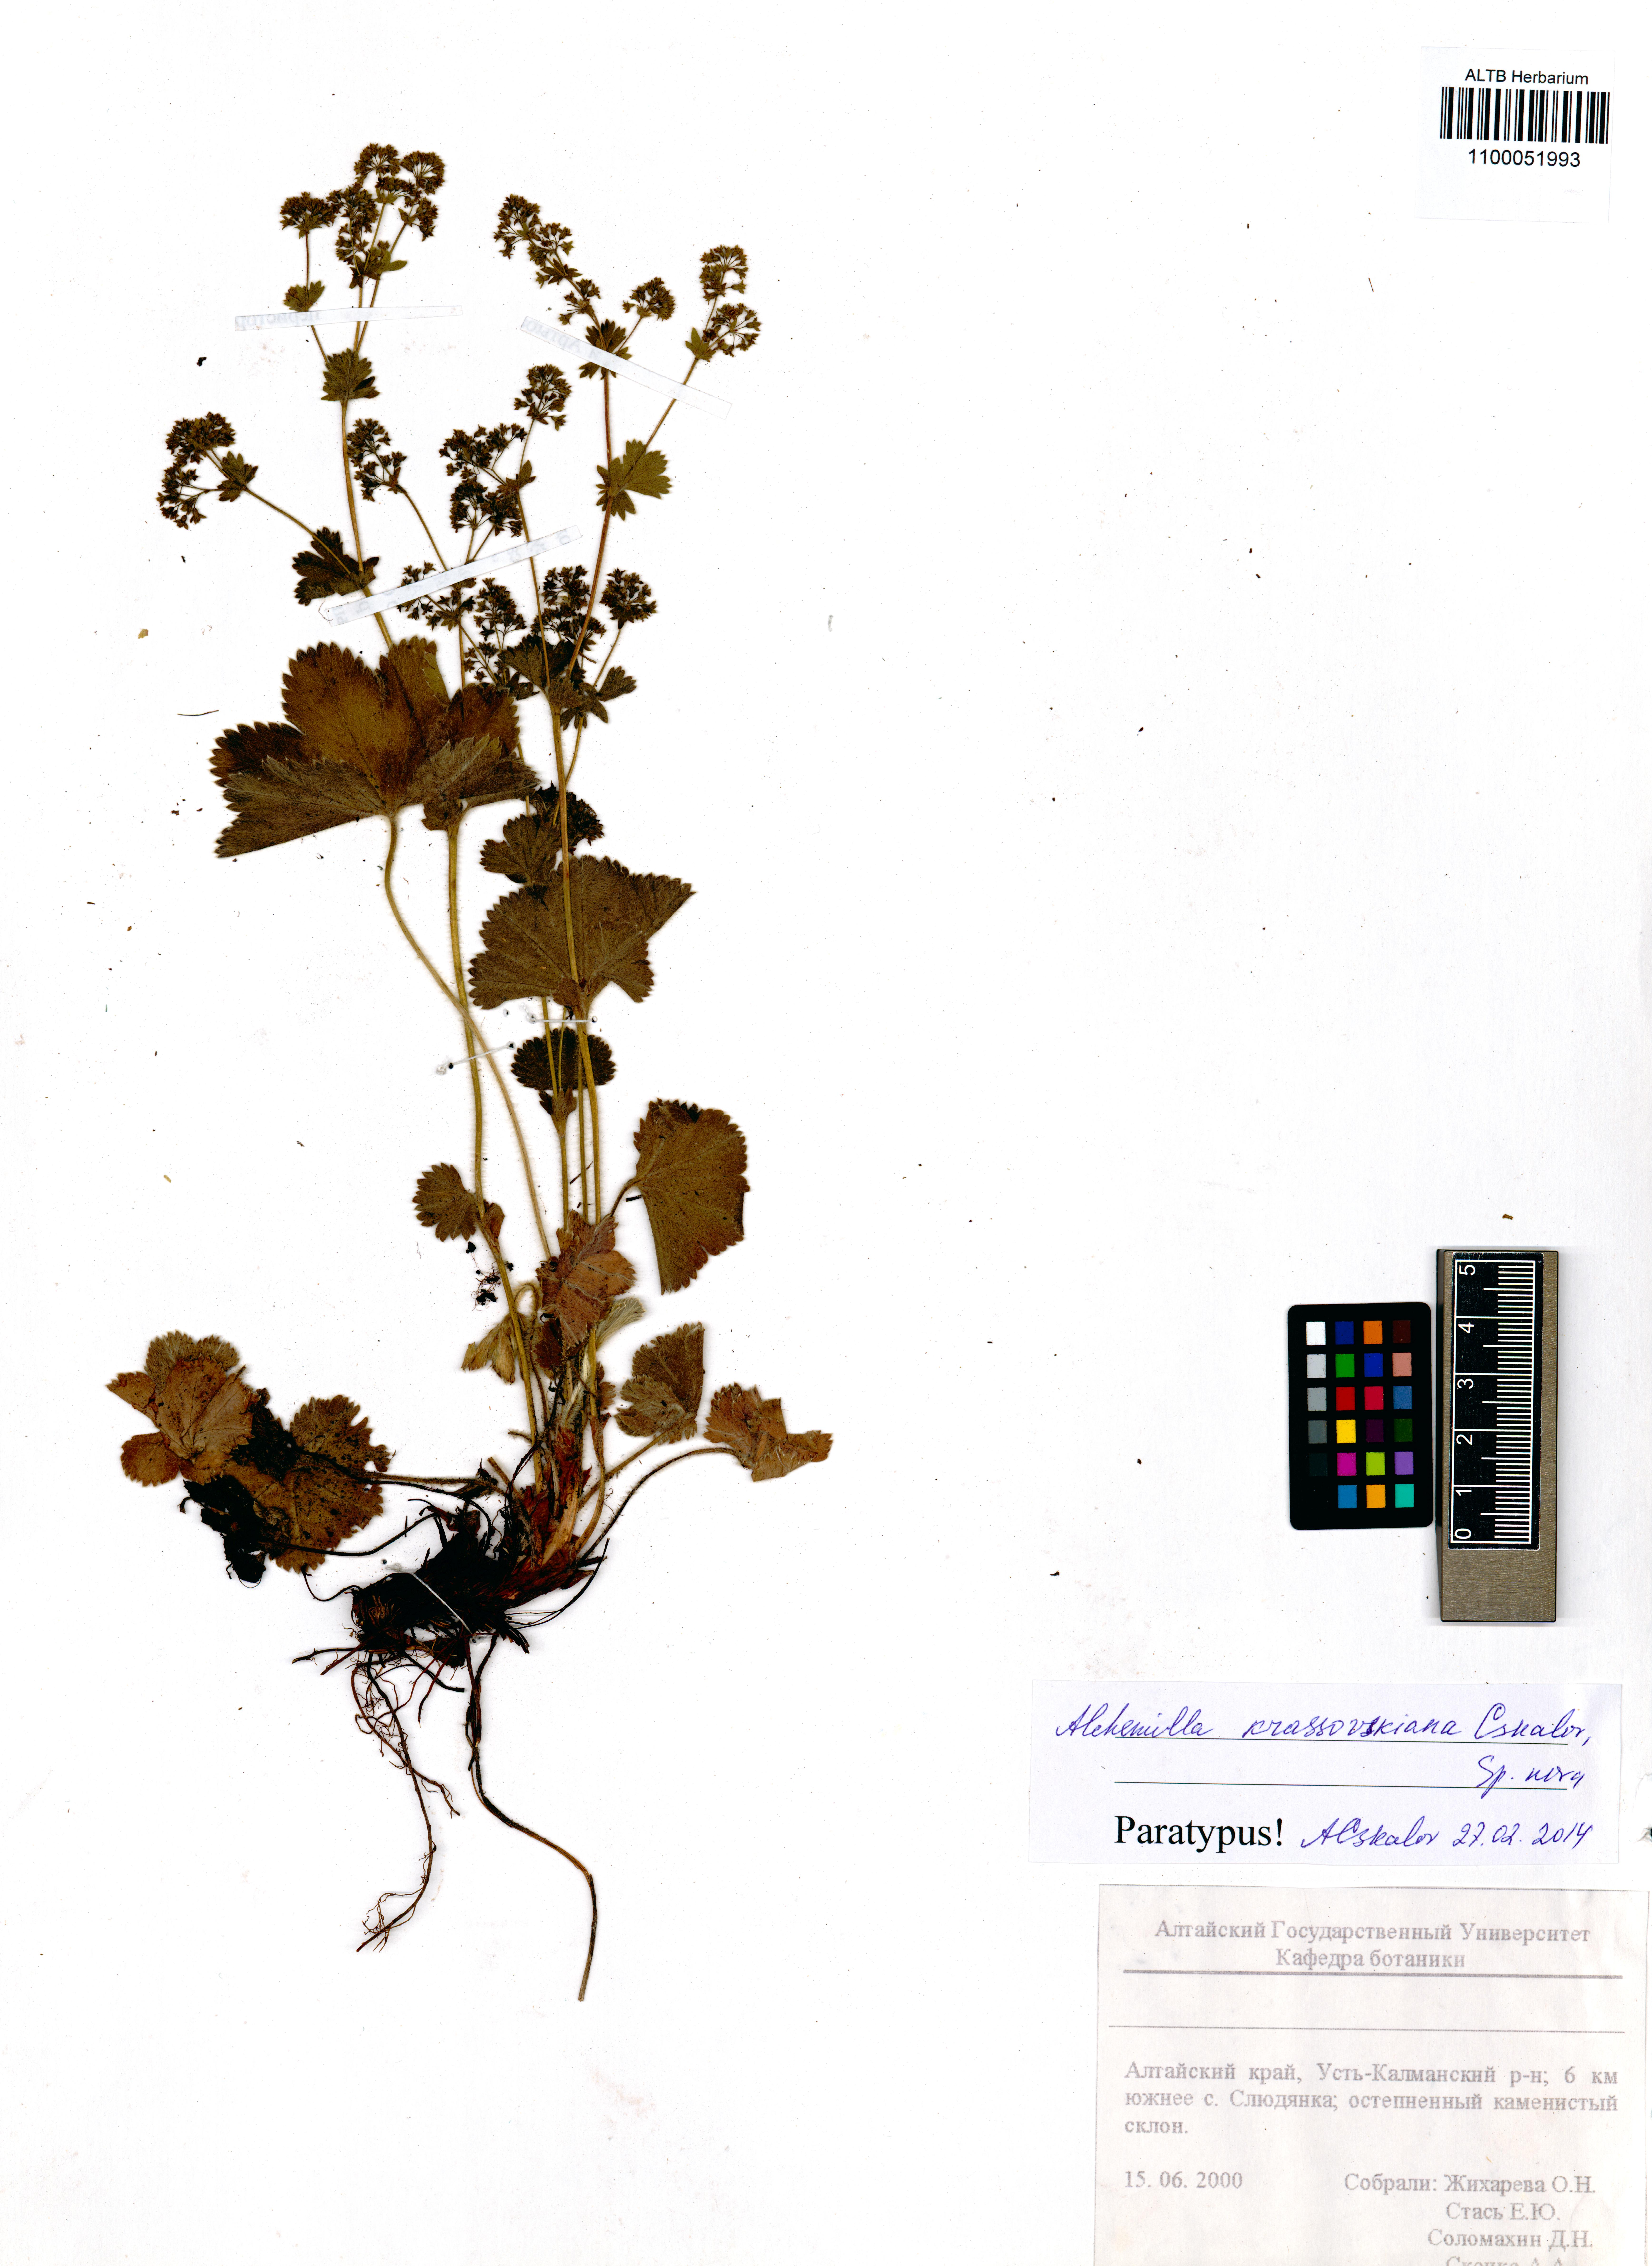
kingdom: Plantae
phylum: Tracheophyta
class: Magnoliopsida
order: Rosales
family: Rosaceae
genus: Alchemilla
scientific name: Alchemilla krassovskiana
